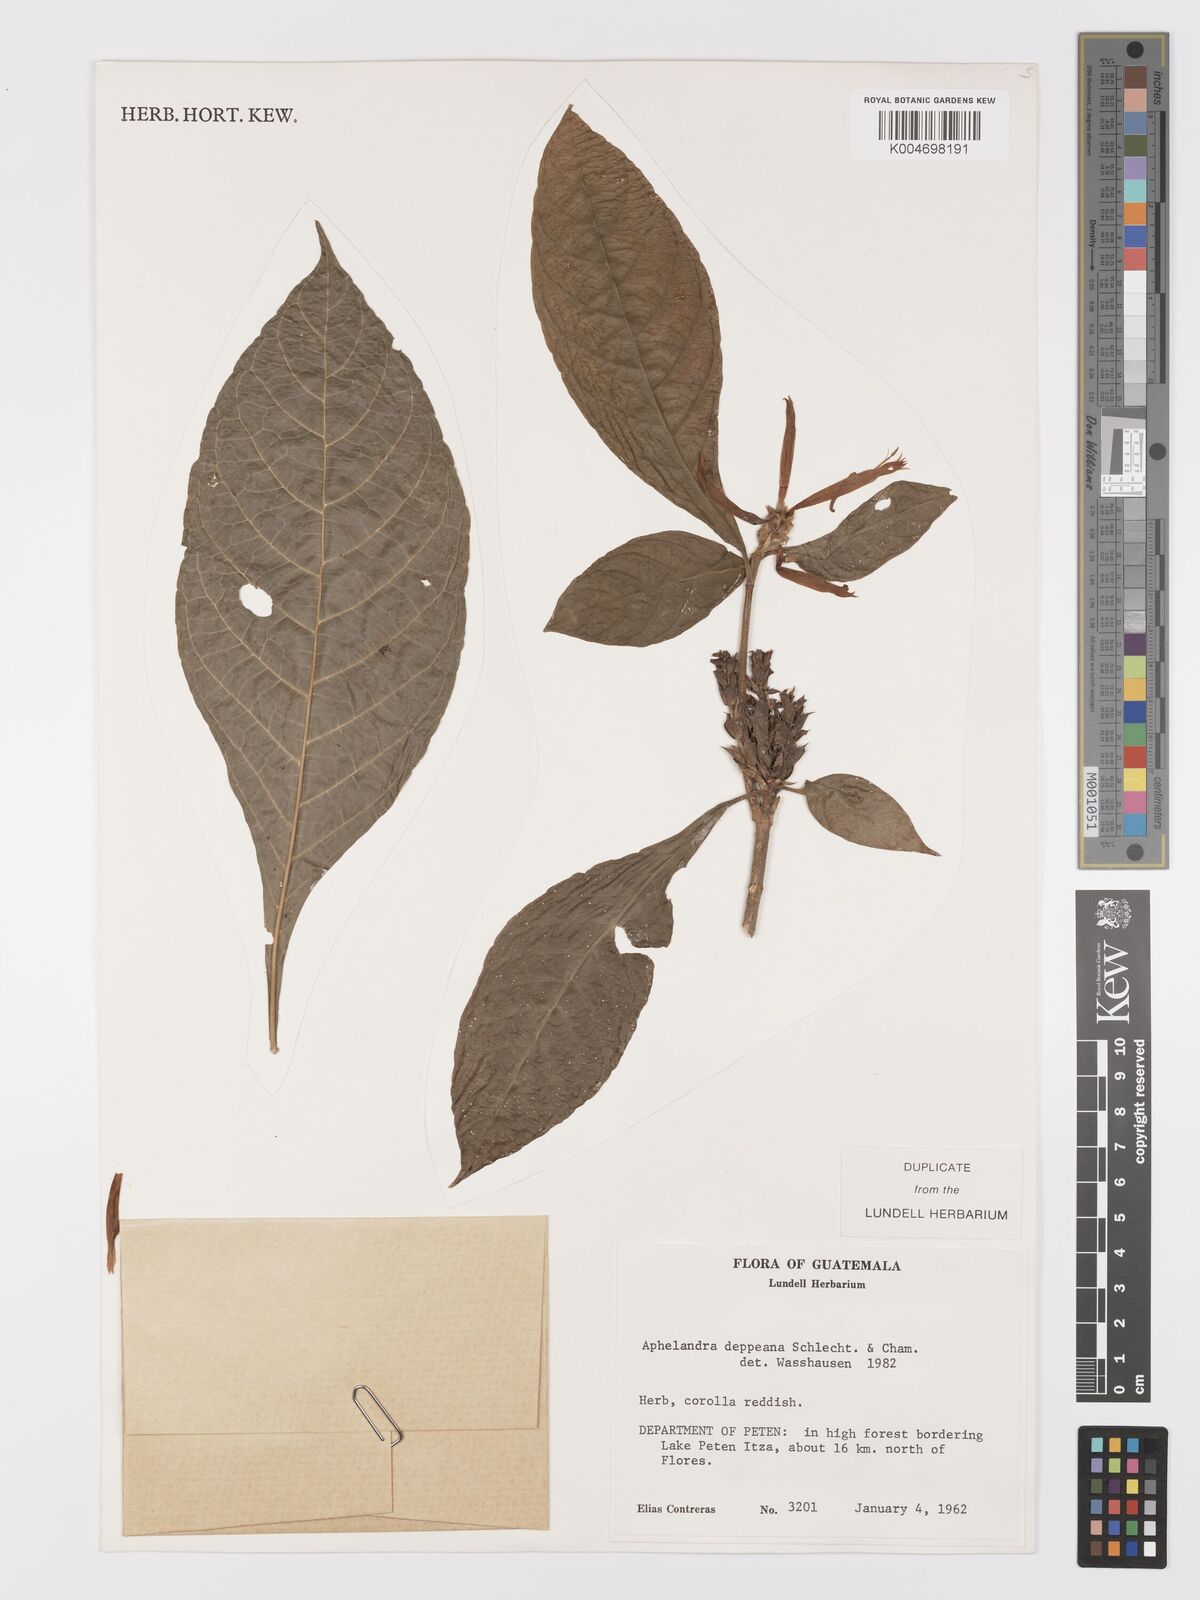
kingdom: Plantae
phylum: Tracheophyta
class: Magnoliopsida
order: Lamiales
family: Acanthaceae
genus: Aphelandra
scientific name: Aphelandra scabra
